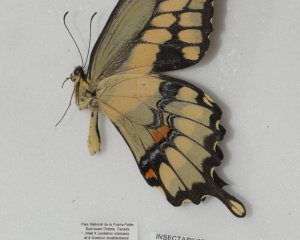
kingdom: Animalia
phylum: Arthropoda
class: Insecta
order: Lepidoptera
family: Papilionidae
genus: Papilio
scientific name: Papilio cresphontes
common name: Eastern Giant Swallowtail
